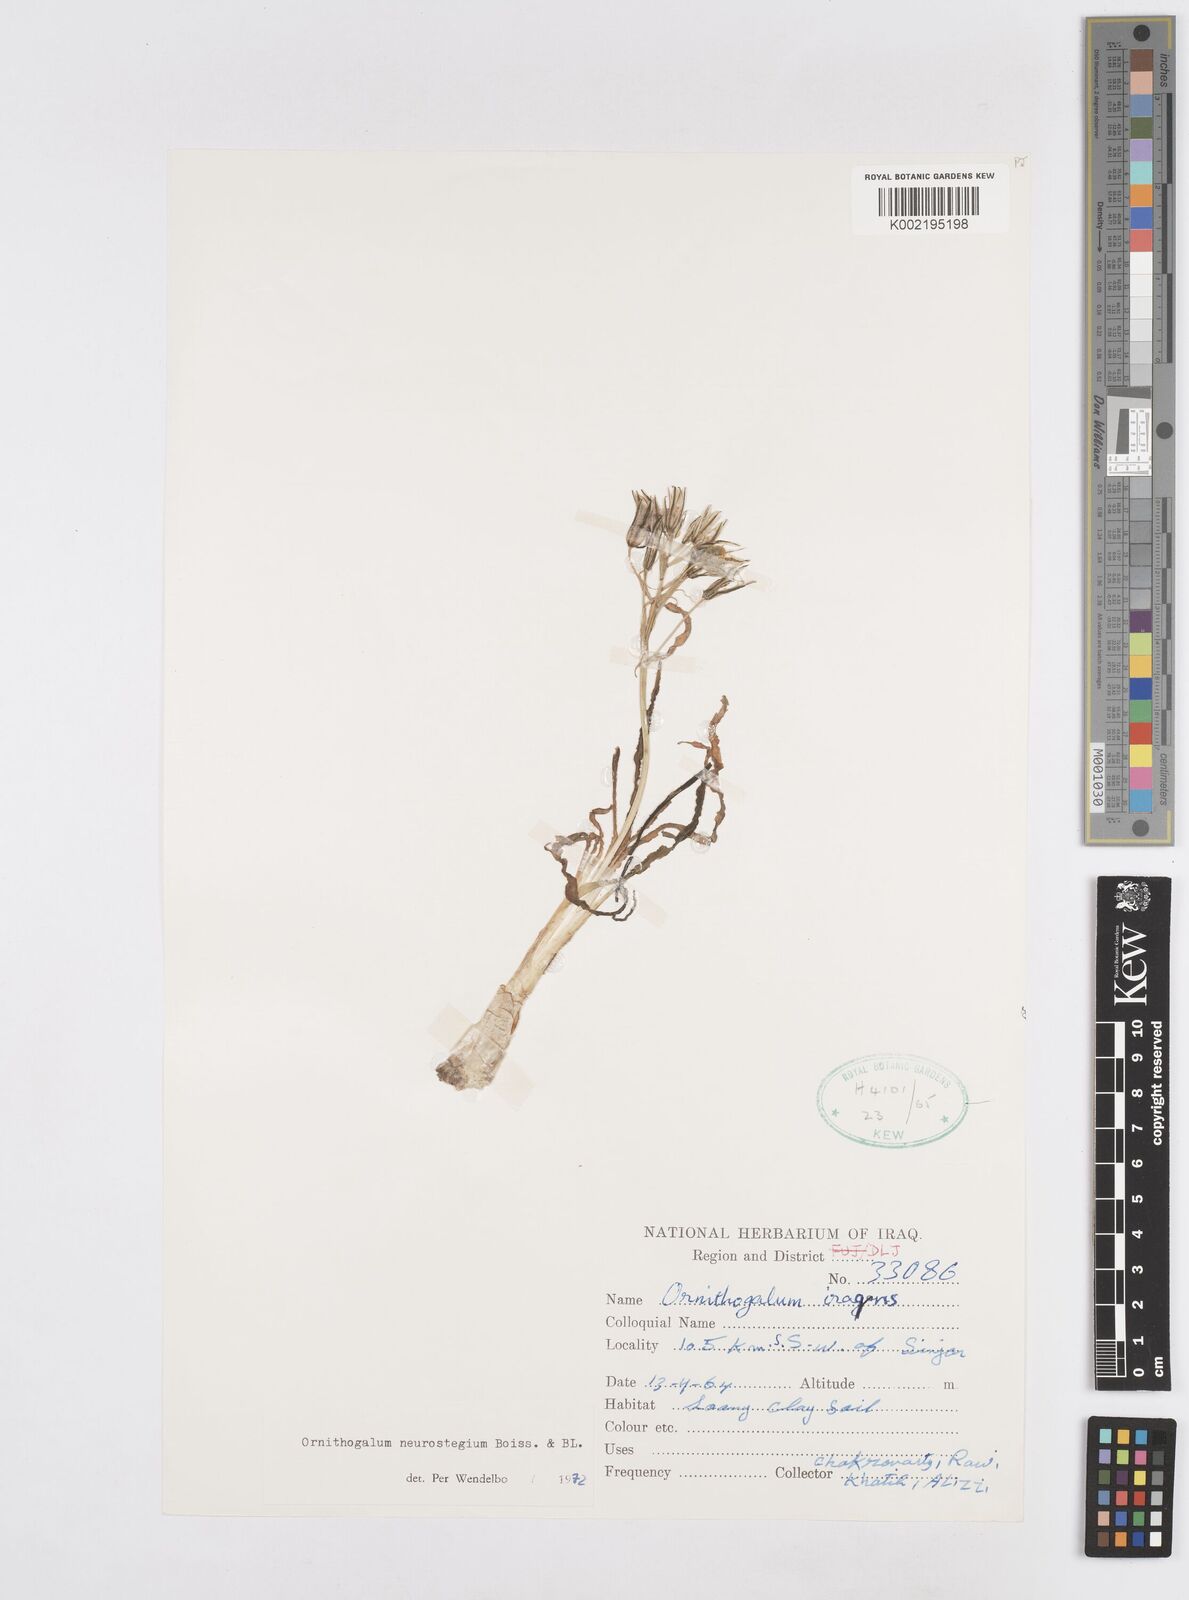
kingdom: Plantae
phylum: Tracheophyta
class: Liliopsida
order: Asparagales
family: Asparagaceae
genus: Ornithogalum
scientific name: Ornithogalum neurostegium
